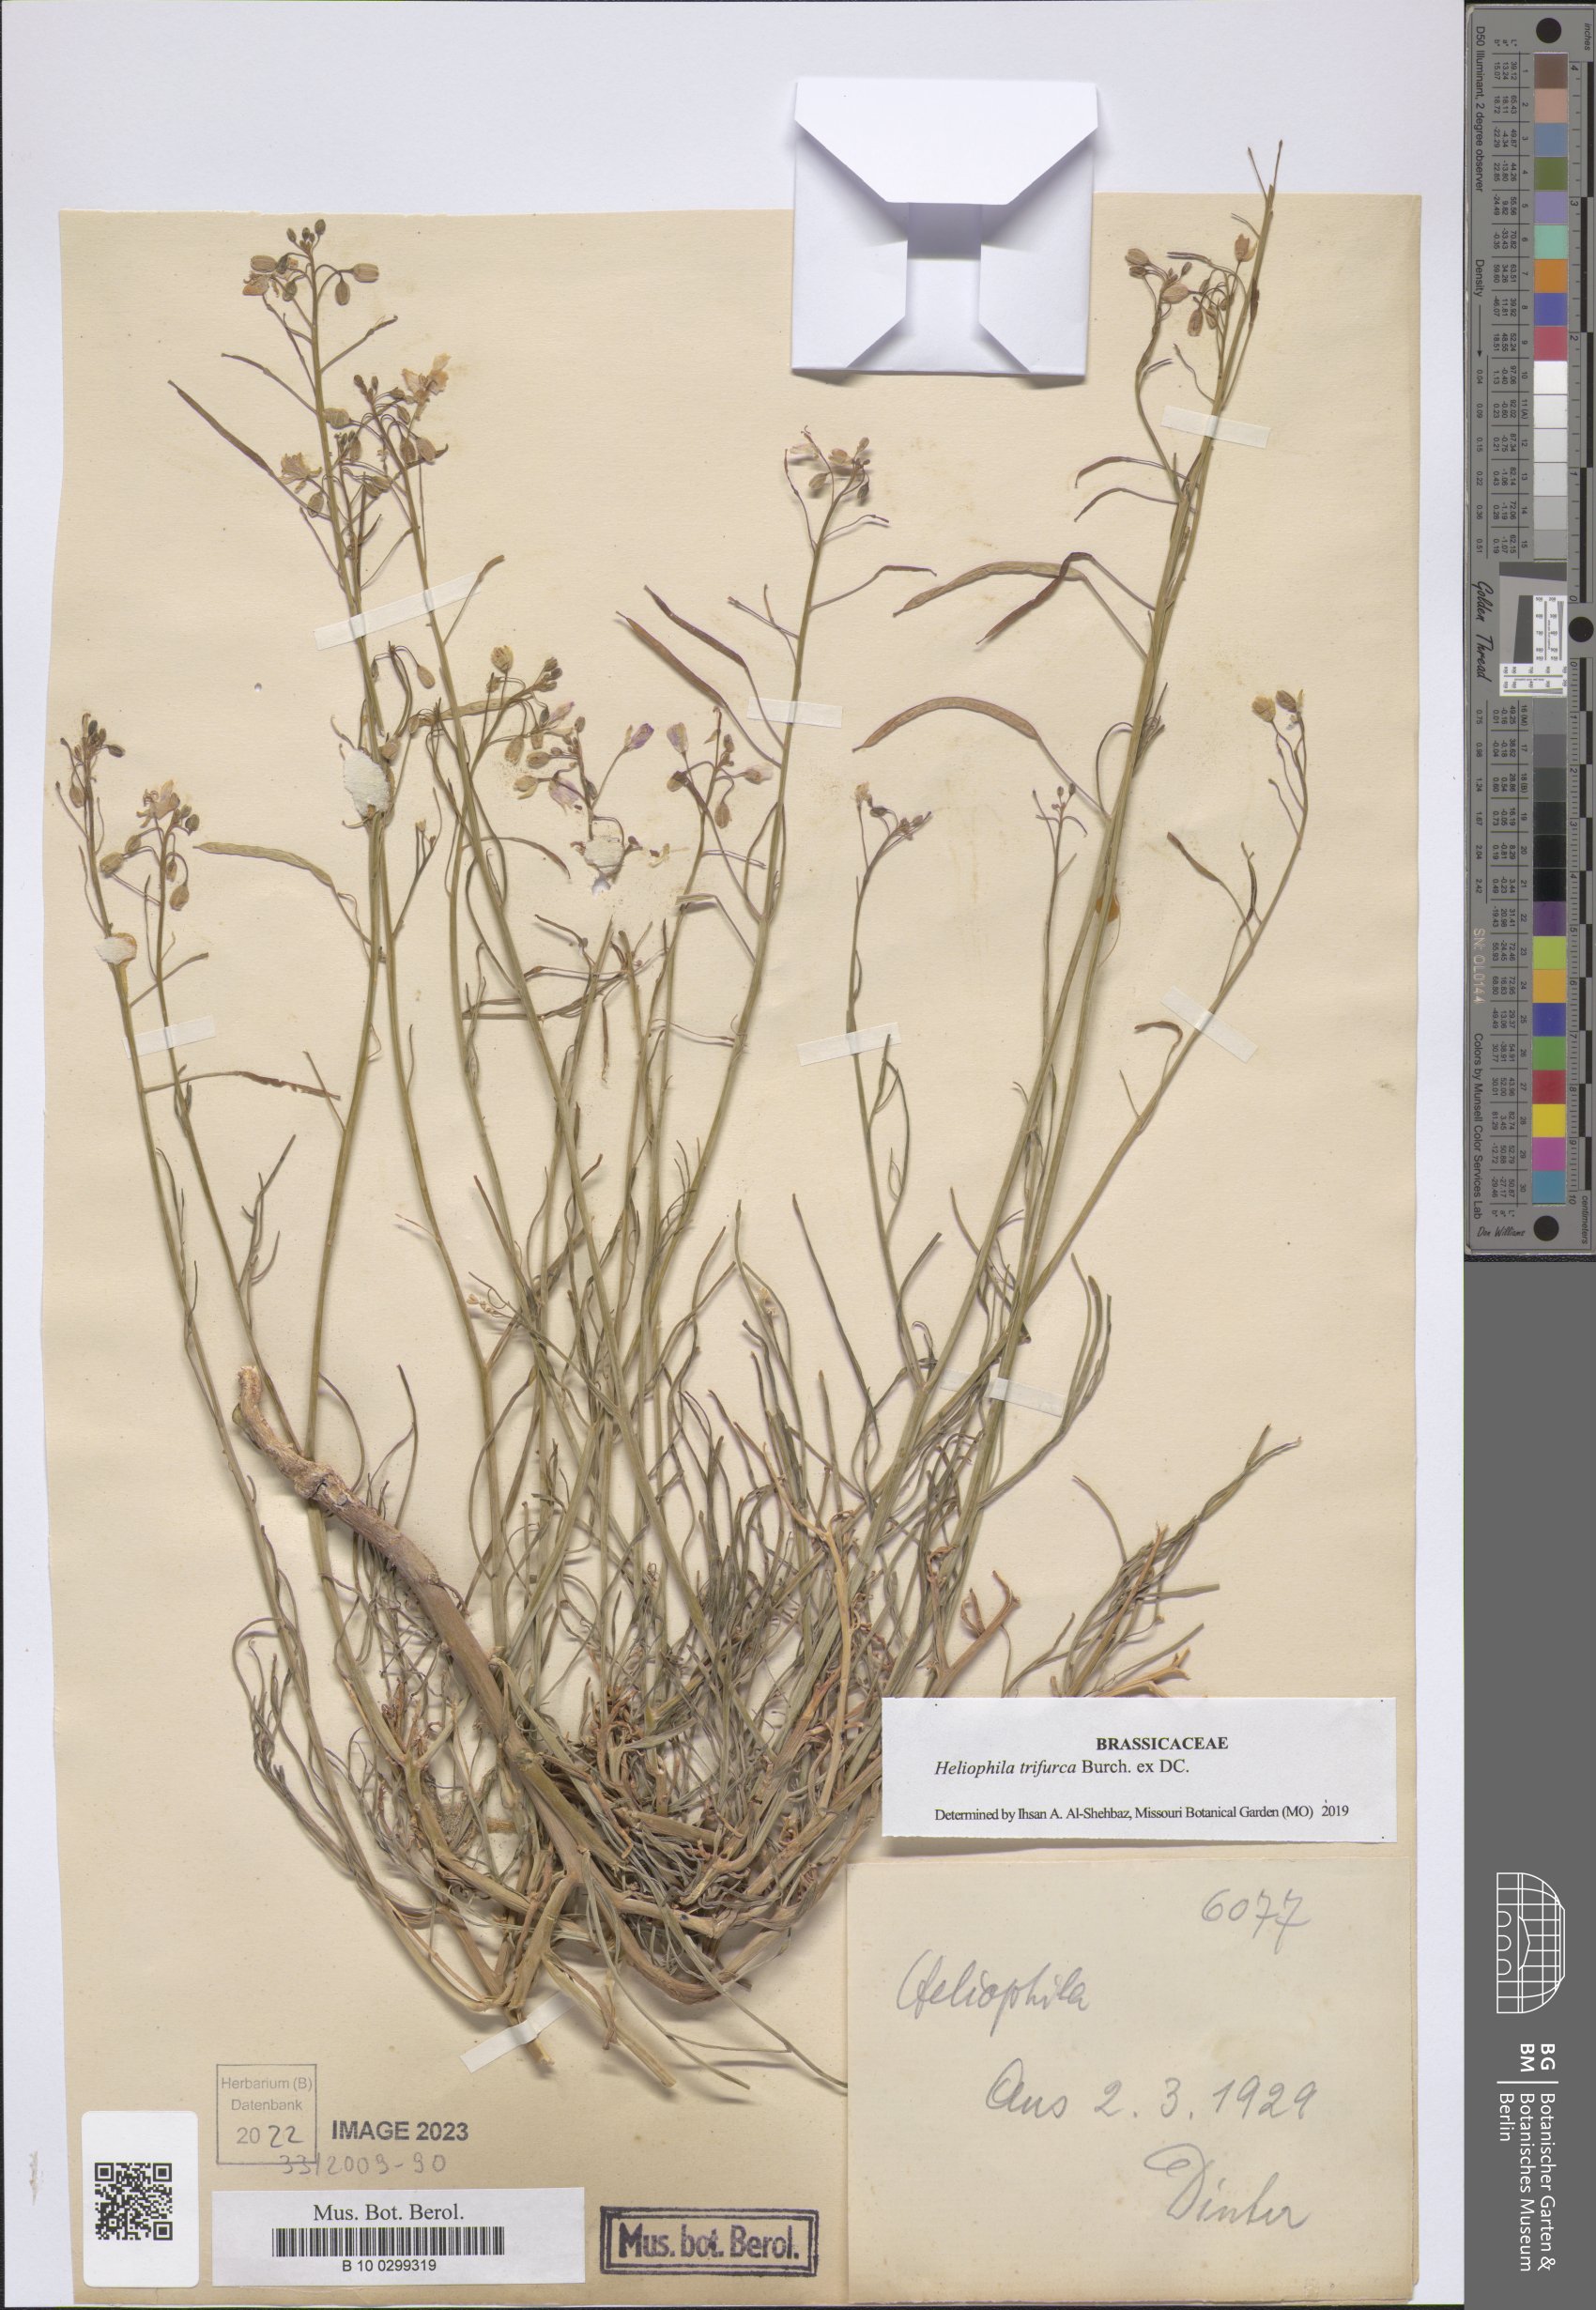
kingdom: Plantae
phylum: Tracheophyta
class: Magnoliopsida
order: Brassicales
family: Brassicaceae
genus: Heliophila
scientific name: Heliophila trifurca
